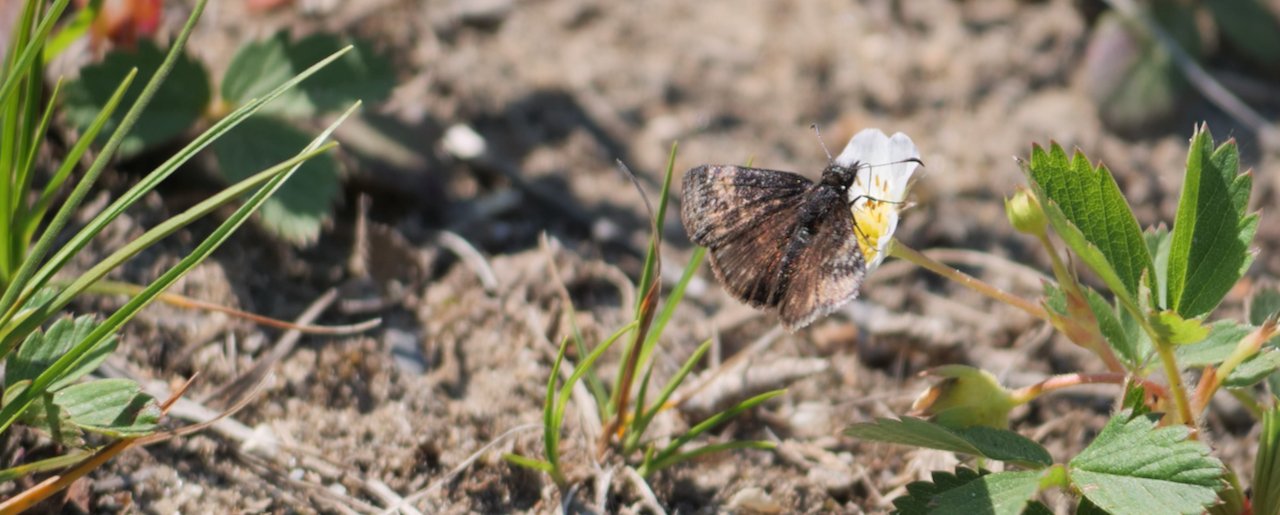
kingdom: Animalia
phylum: Arthropoda
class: Insecta
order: Lepidoptera
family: Hesperiidae
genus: Erynnis
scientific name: Erynnis
